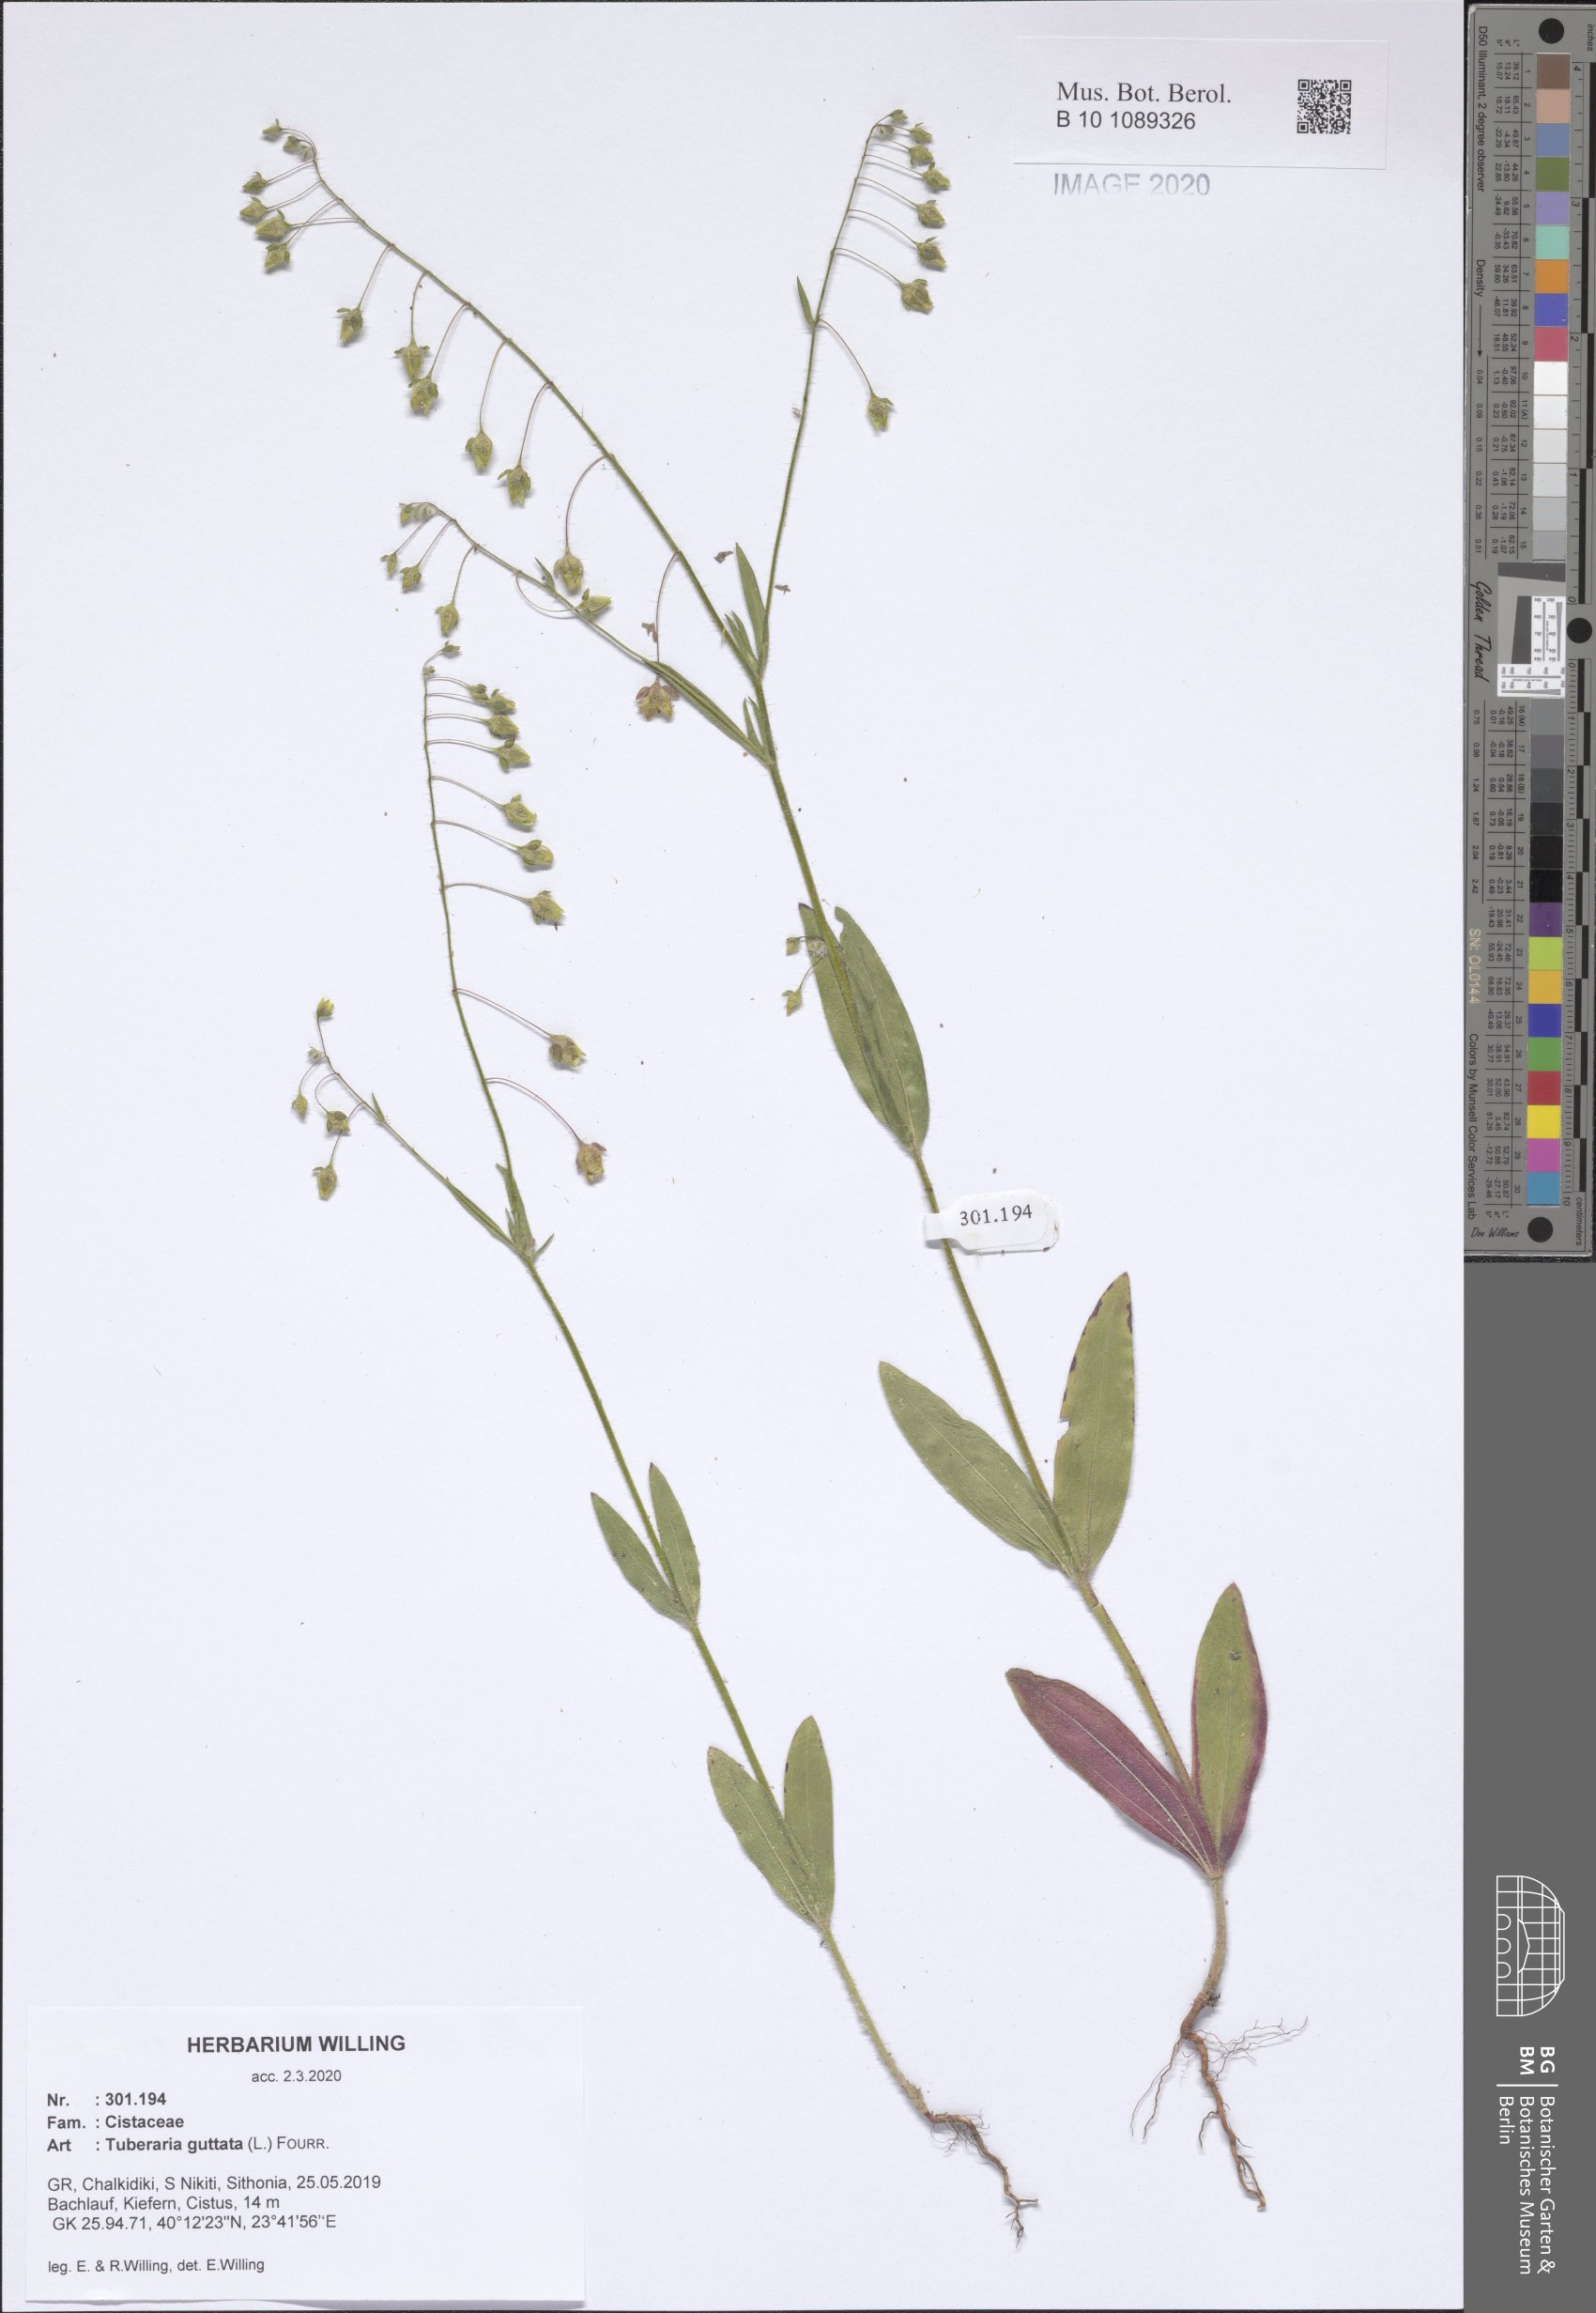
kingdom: Plantae
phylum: Tracheophyta
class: Magnoliopsida
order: Malvales
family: Cistaceae
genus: Tuberaria
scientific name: Tuberaria guttata
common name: Spotted rock-rose
